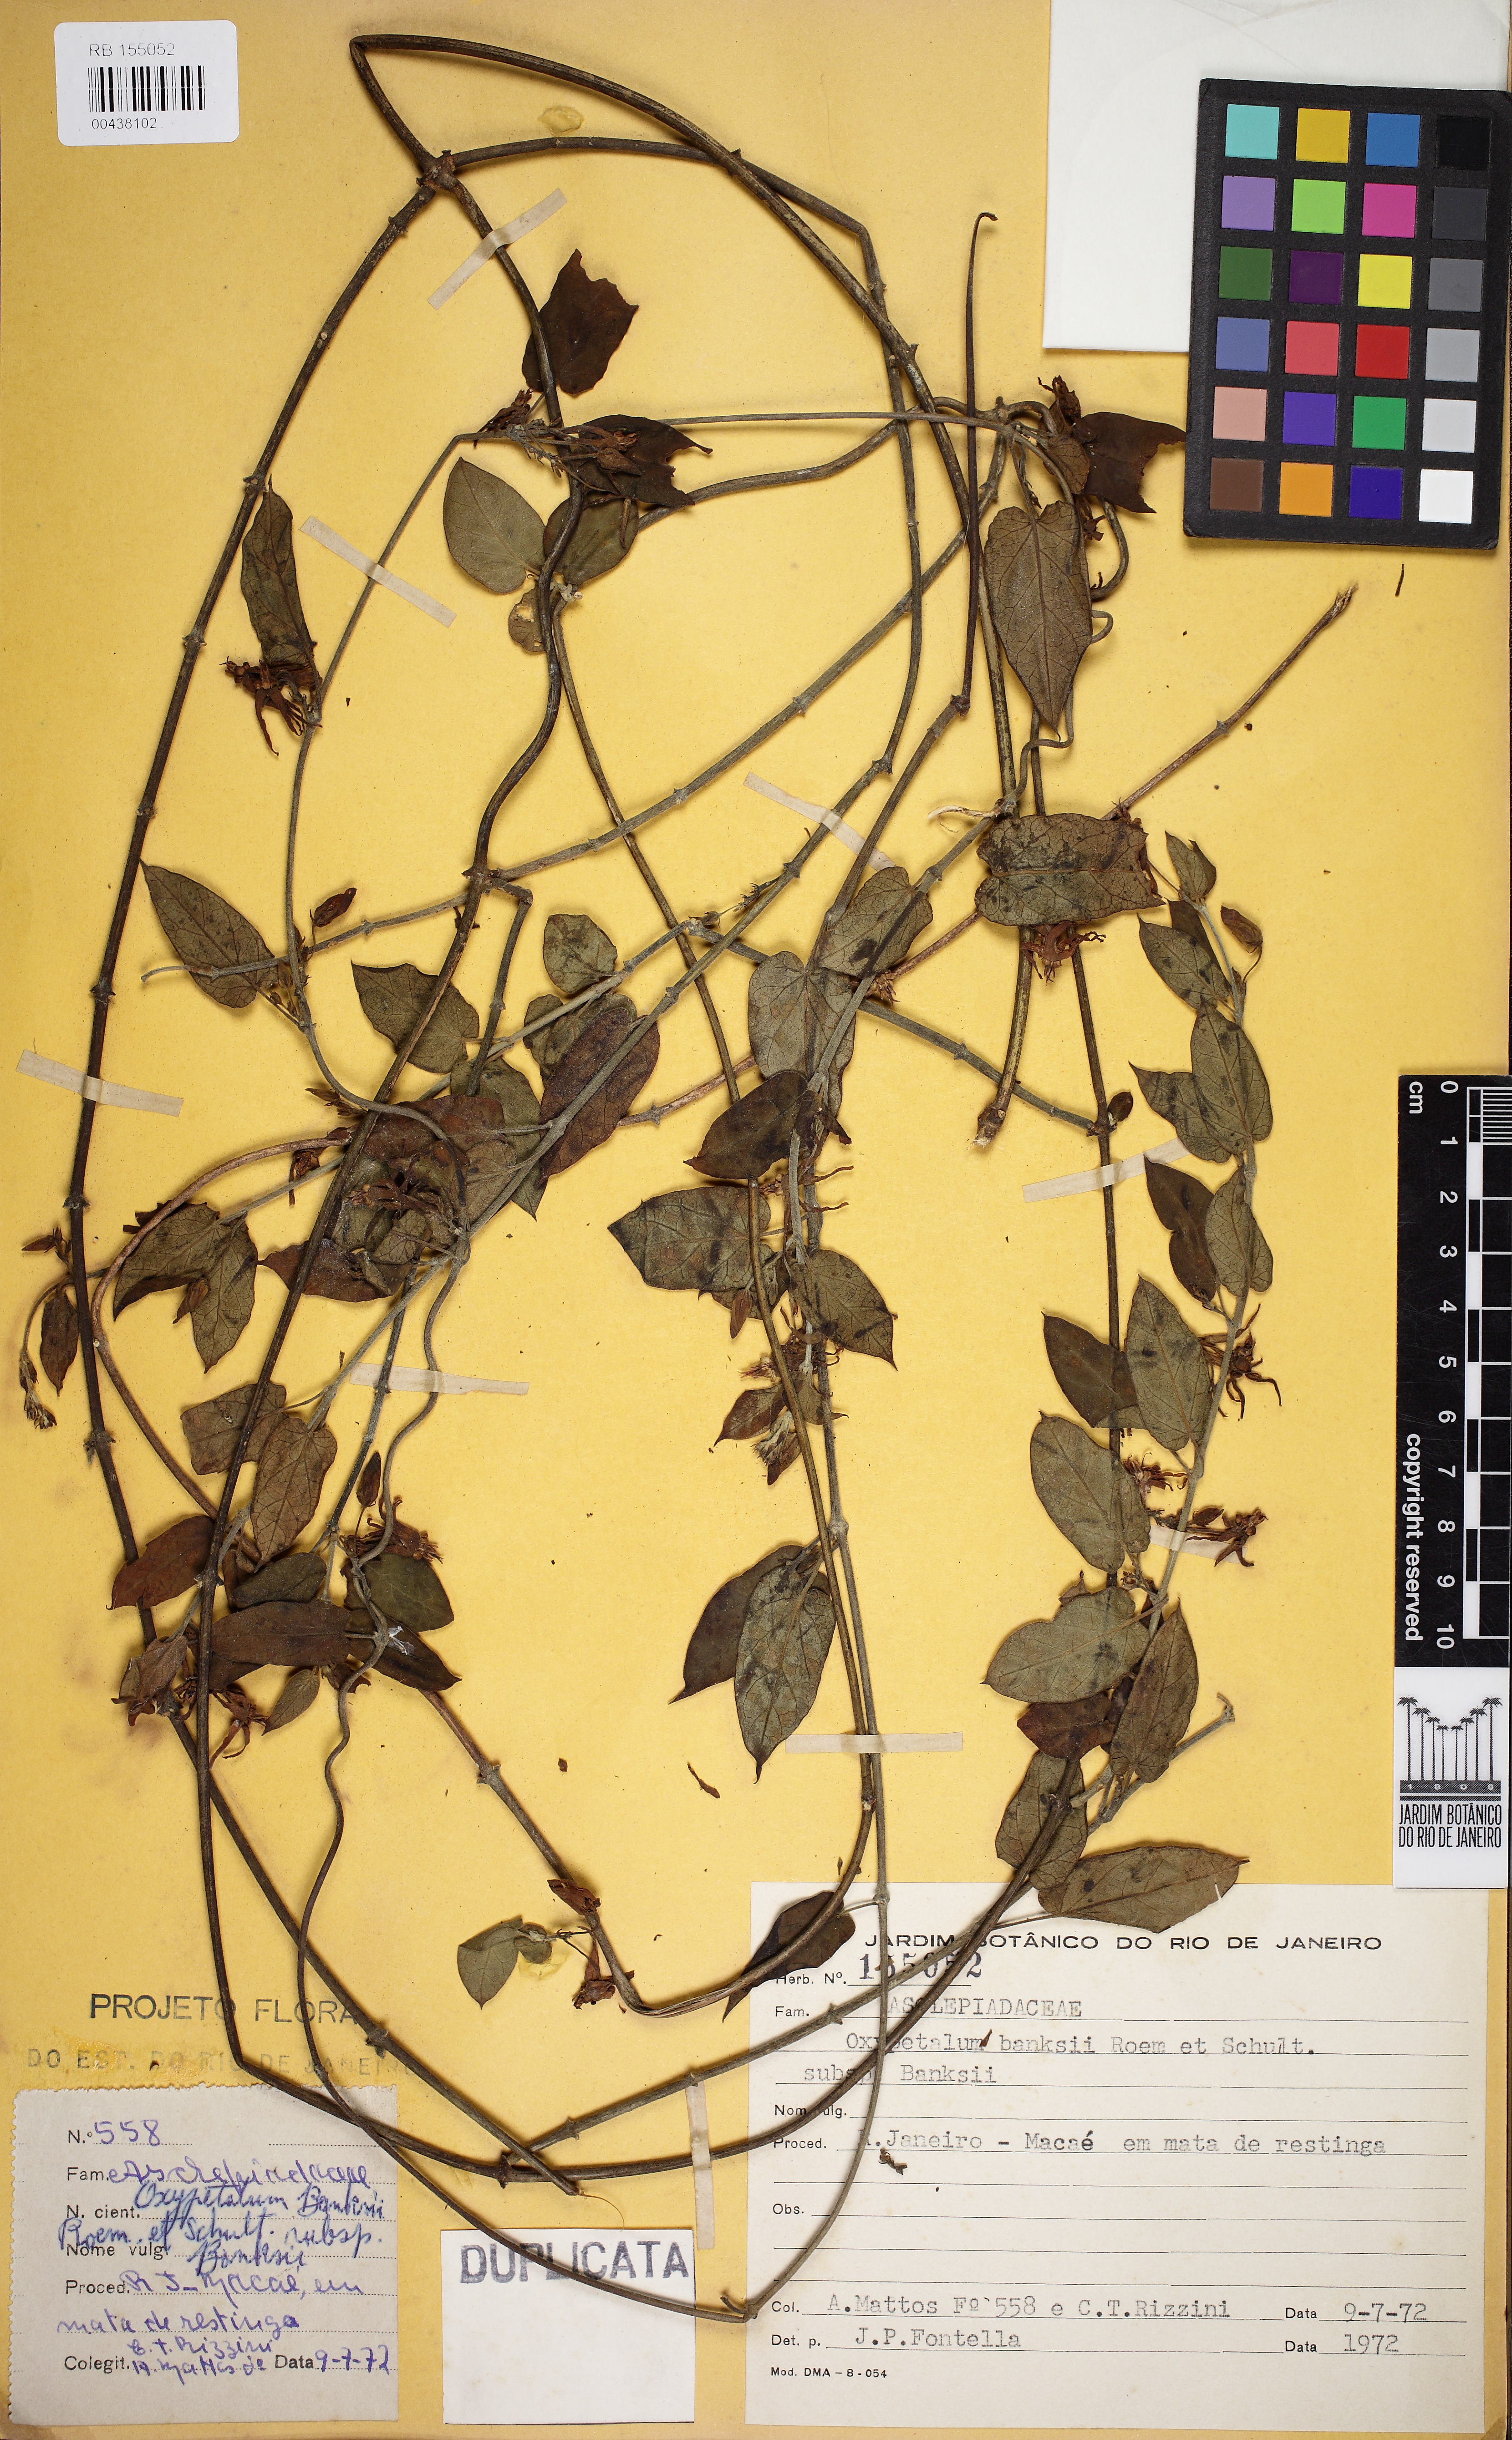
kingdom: Plantae
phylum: Tracheophyta
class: Magnoliopsida
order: Gentianales
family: Apocynaceae
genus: Oxypetalum
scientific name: Oxypetalum banksii
